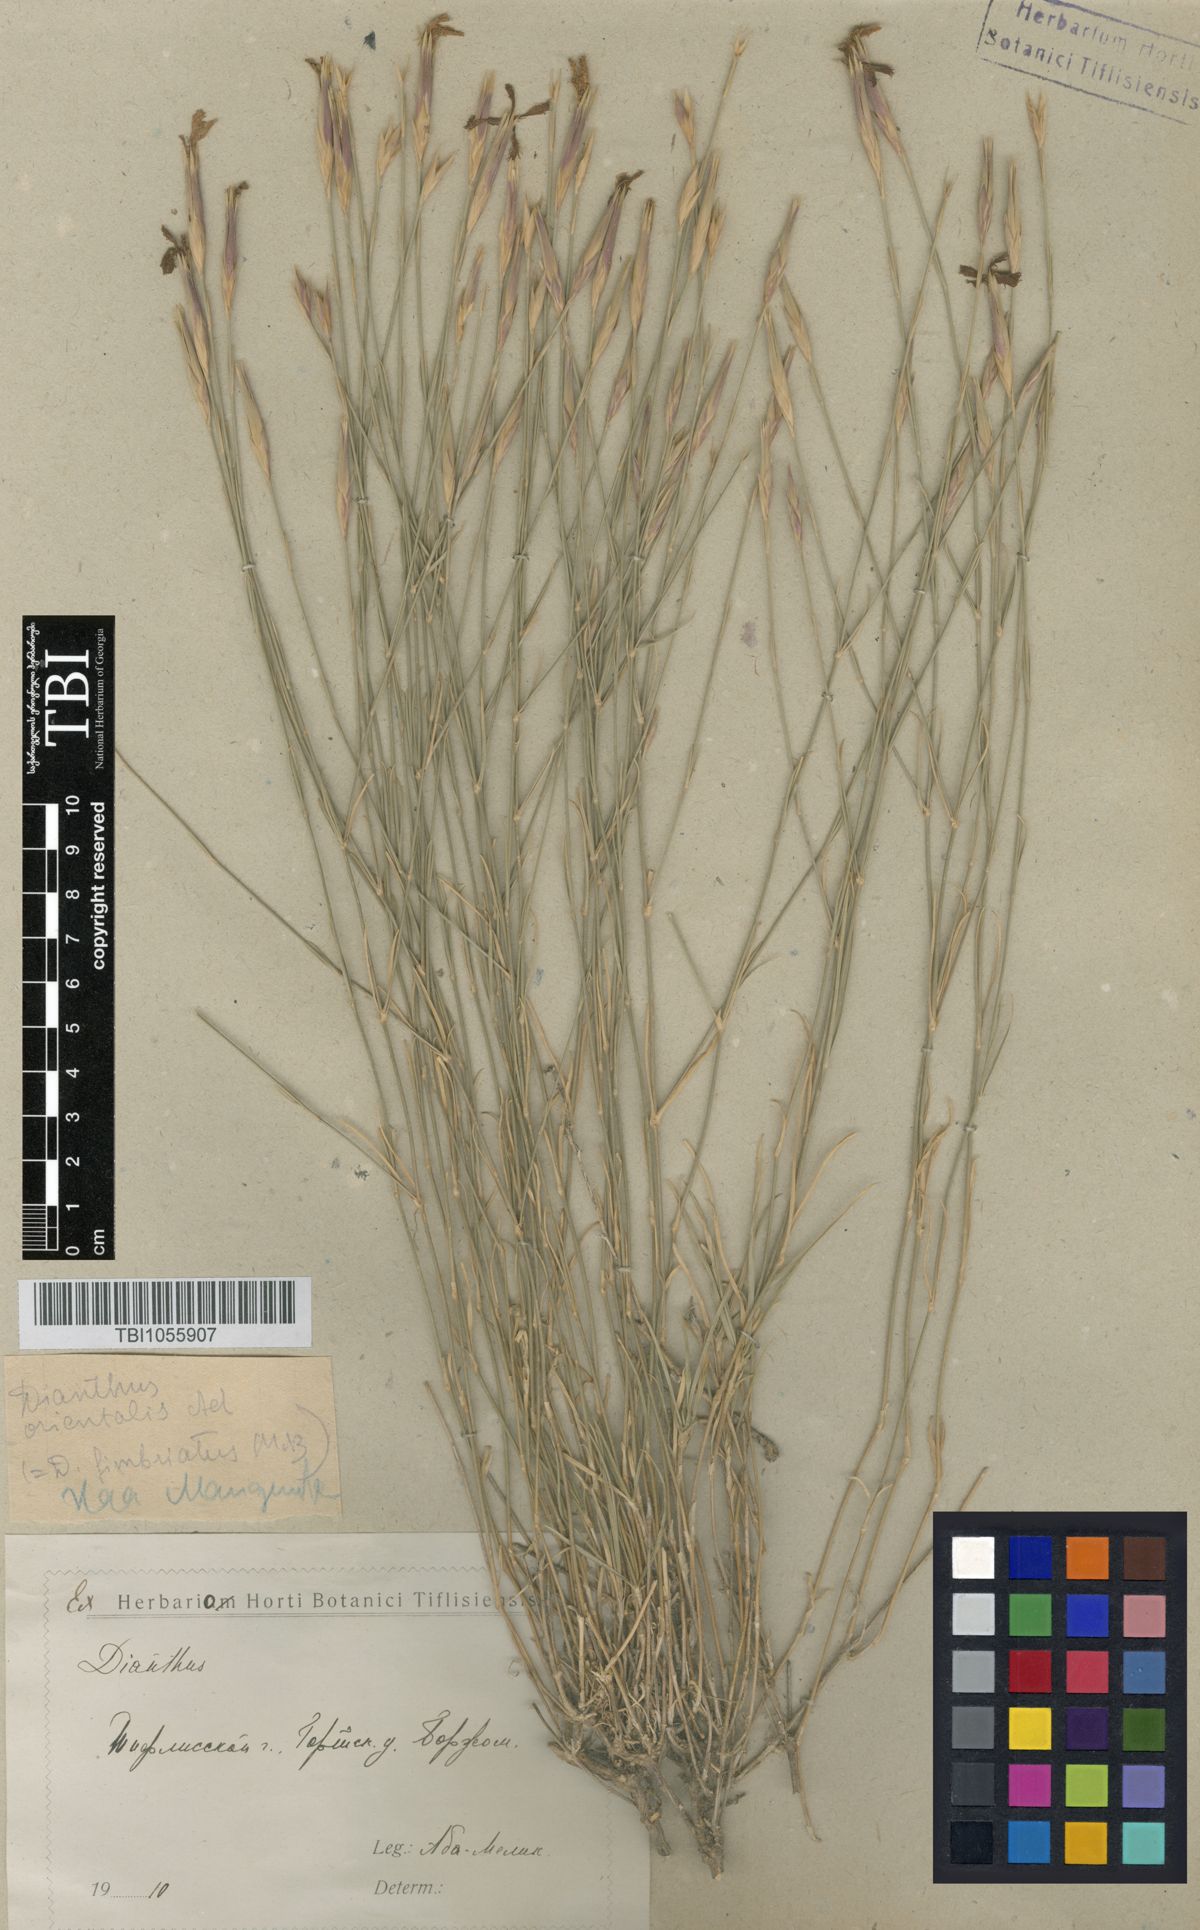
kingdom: Plantae
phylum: Tracheophyta
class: Magnoliopsida
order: Caryophyllales
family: Caryophyllaceae
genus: Dianthus
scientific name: Dianthus orientalis
